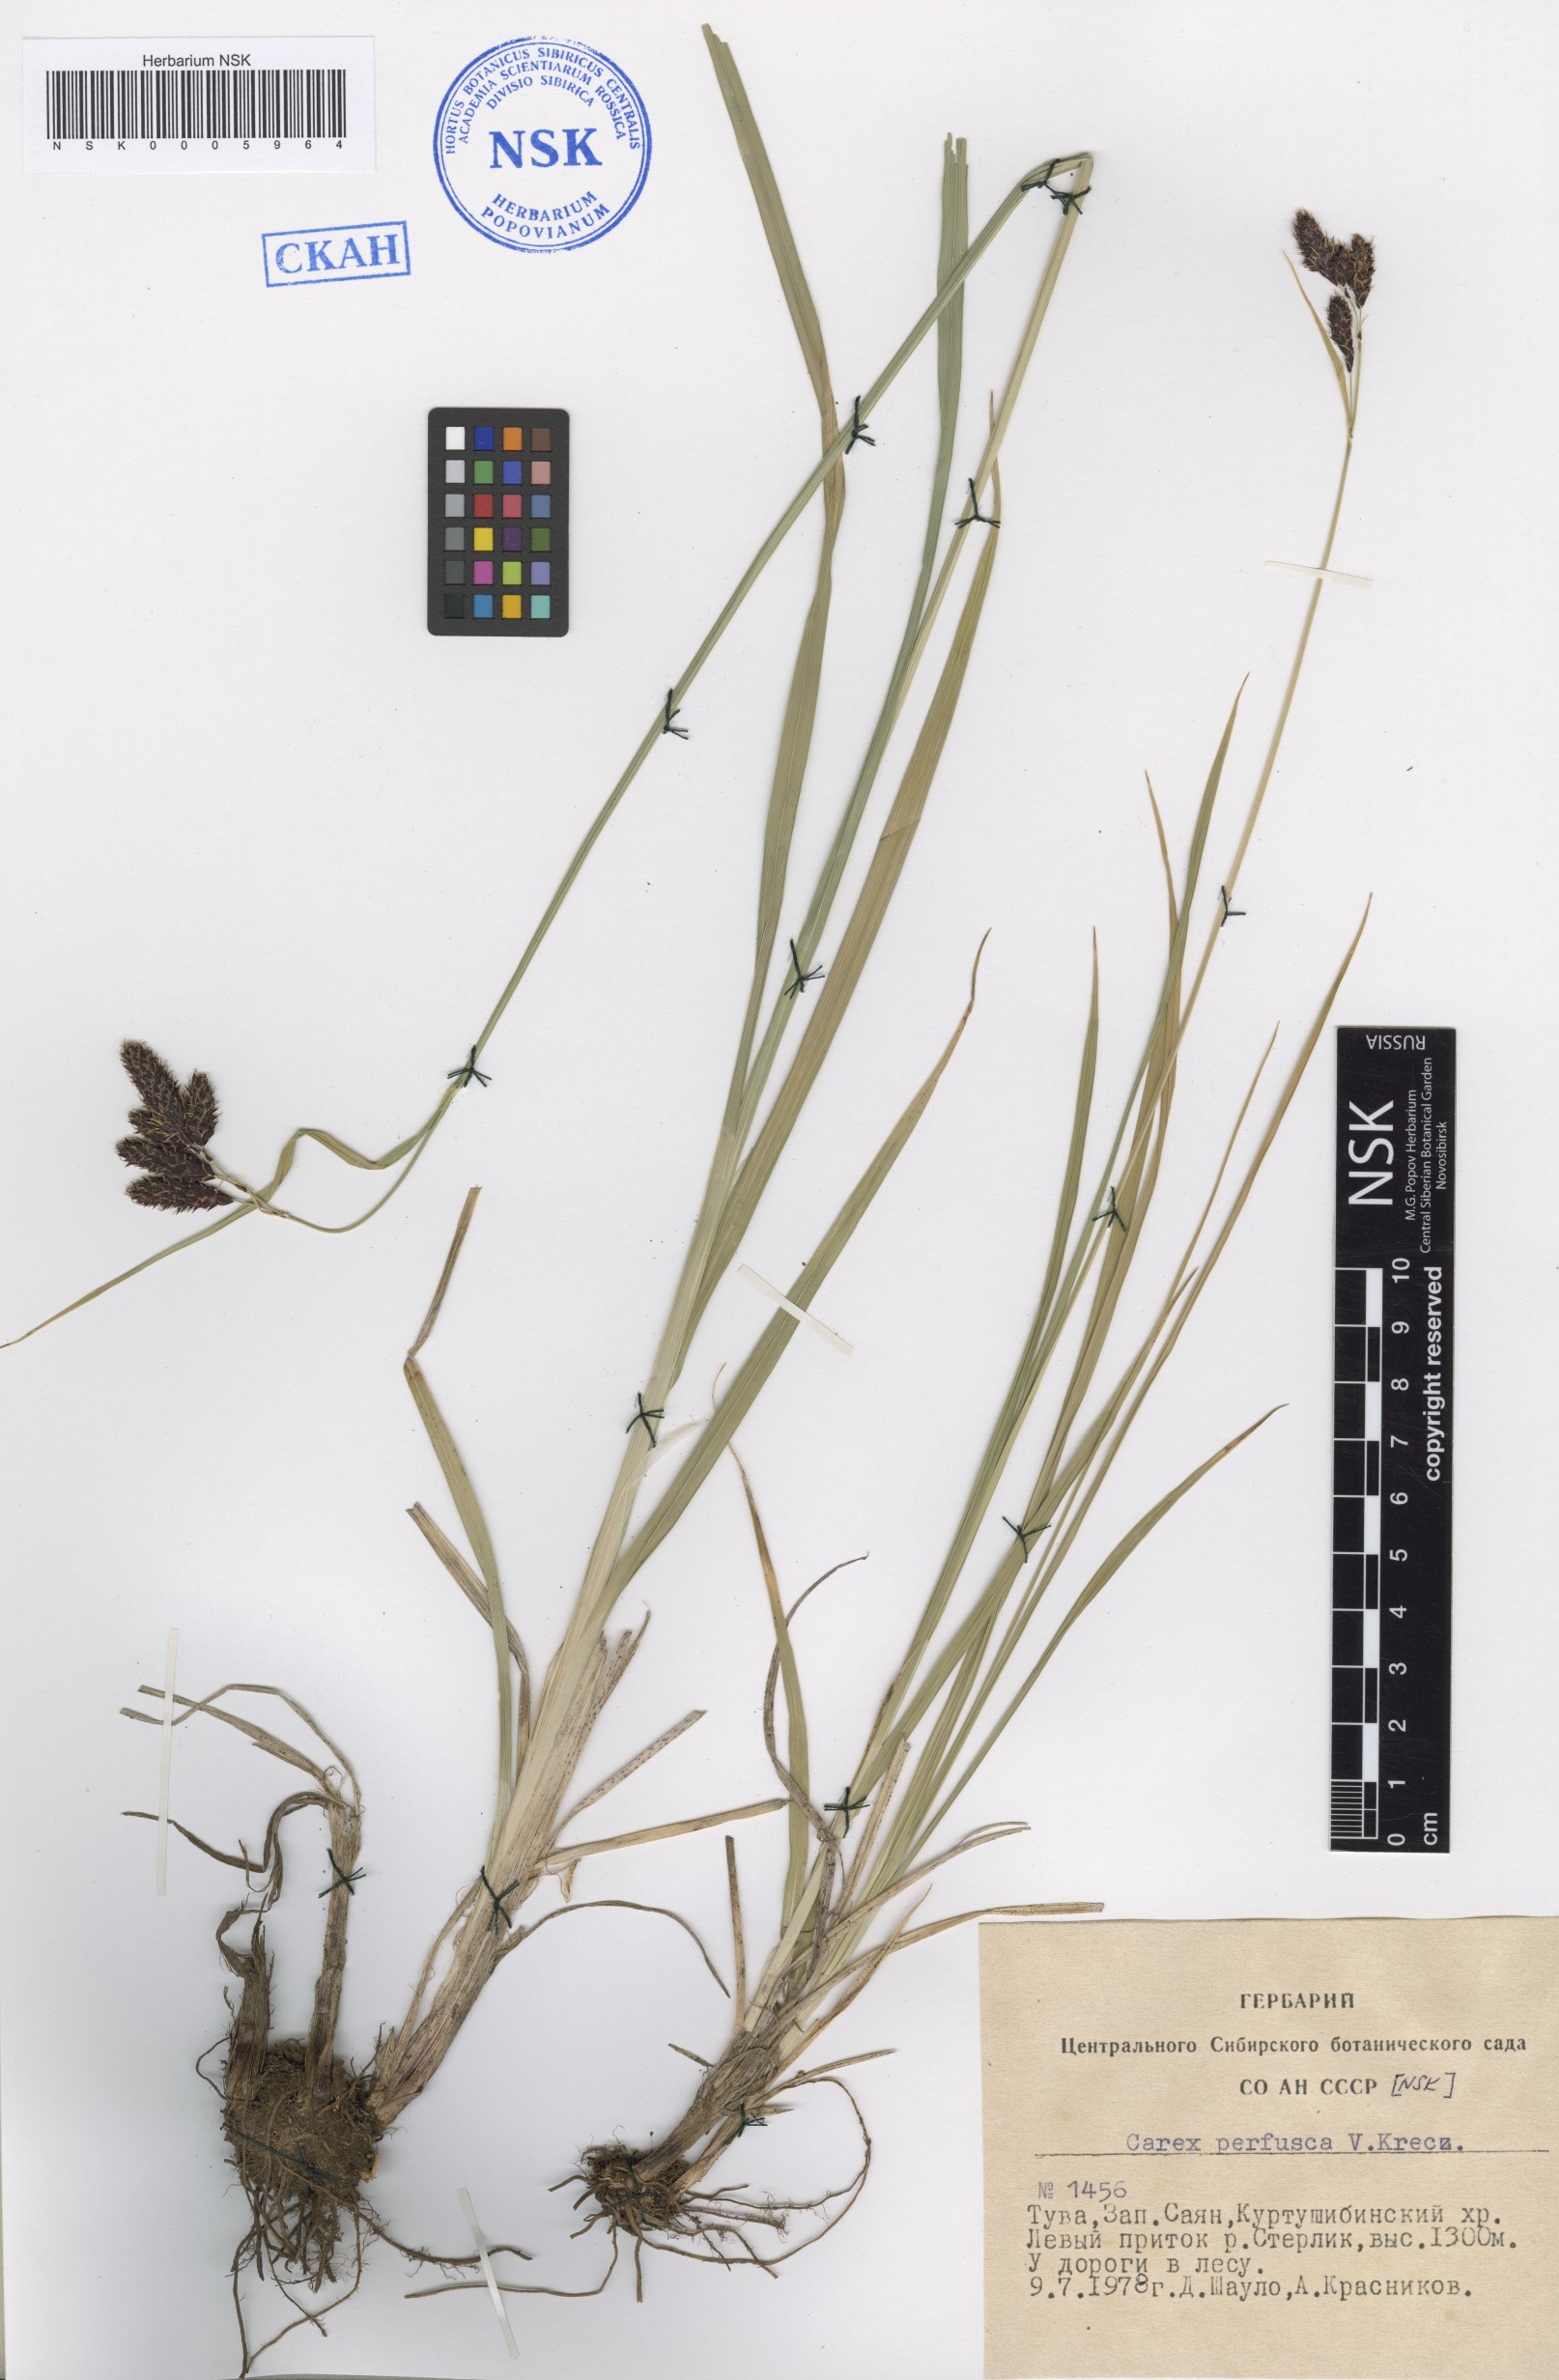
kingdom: Plantae
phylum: Tracheophyta
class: Liliopsida
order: Poales
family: Cyperaceae
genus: Carex
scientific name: Carex aterrima
